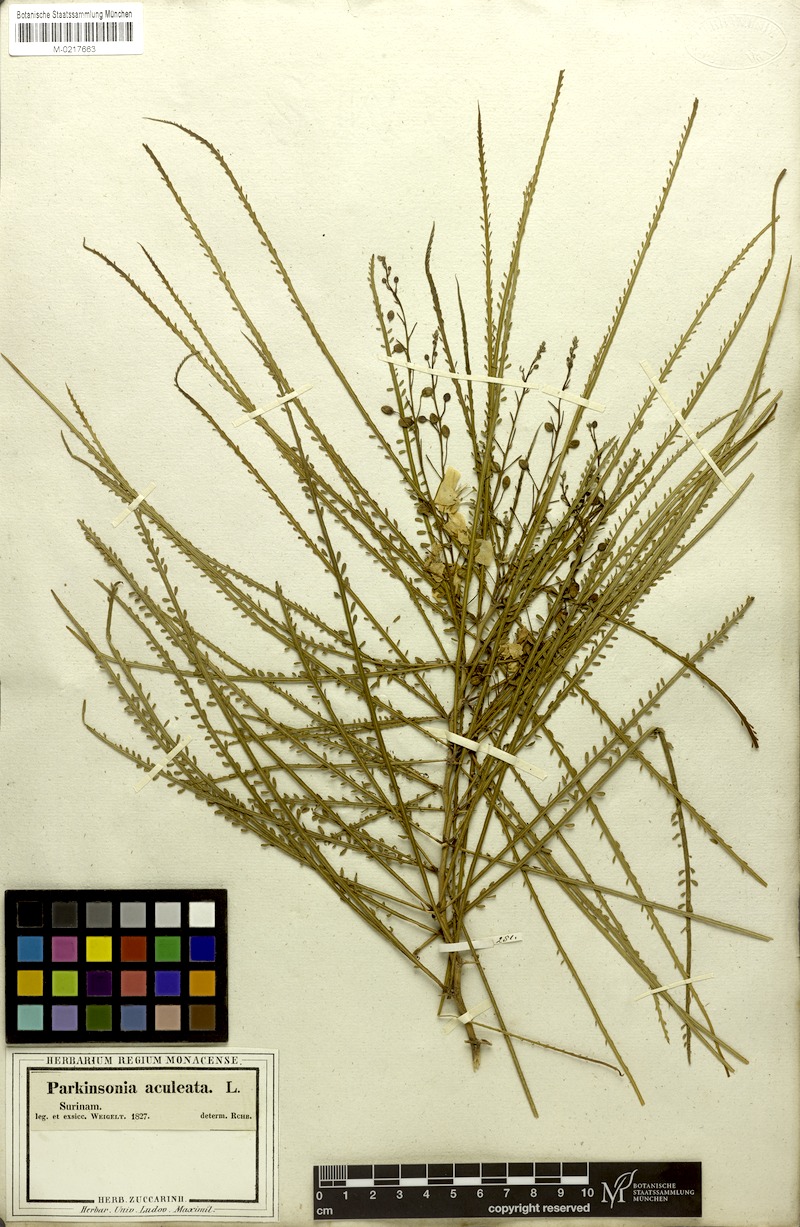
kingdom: Plantae
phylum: Tracheophyta
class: Magnoliopsida
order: Fabales
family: Fabaceae
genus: Parkinsonia
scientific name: Parkinsonia aculeata
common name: Jerusalem thorn
